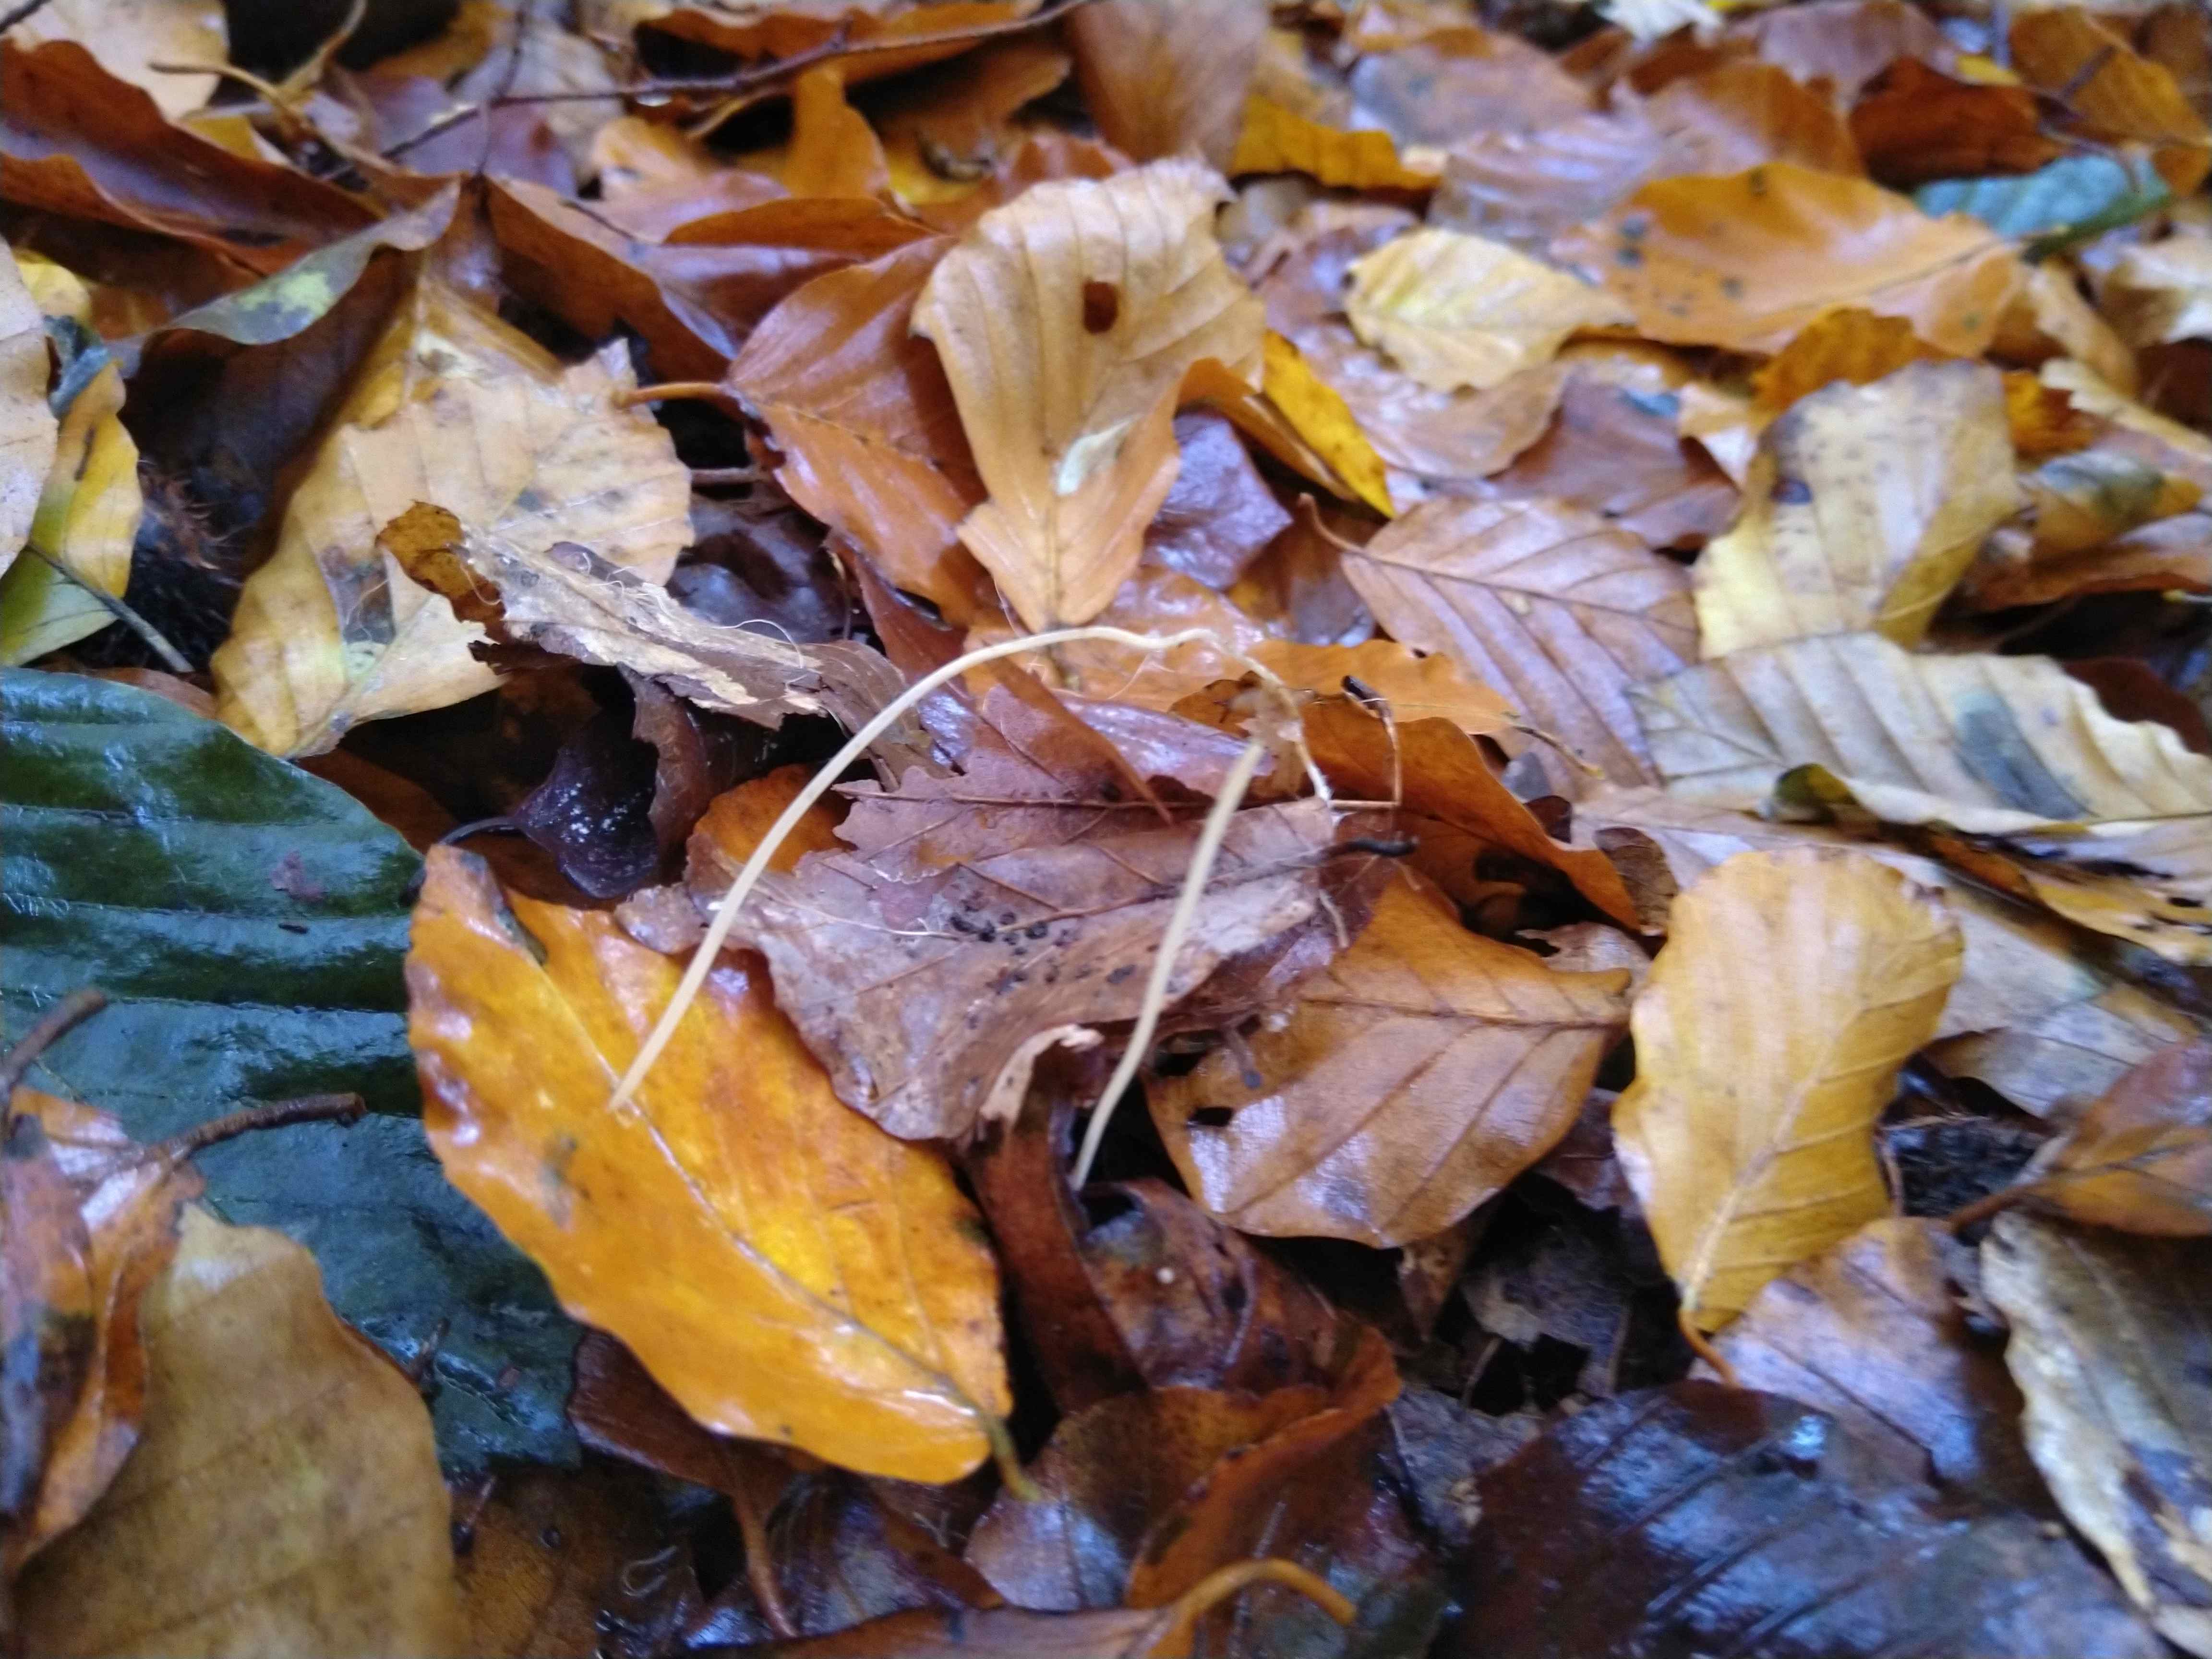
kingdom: Fungi
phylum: Basidiomycota
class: Agaricomycetes
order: Agaricales
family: Typhulaceae
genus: Typhula
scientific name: Typhula juncea
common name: trådagtig rørkølle
